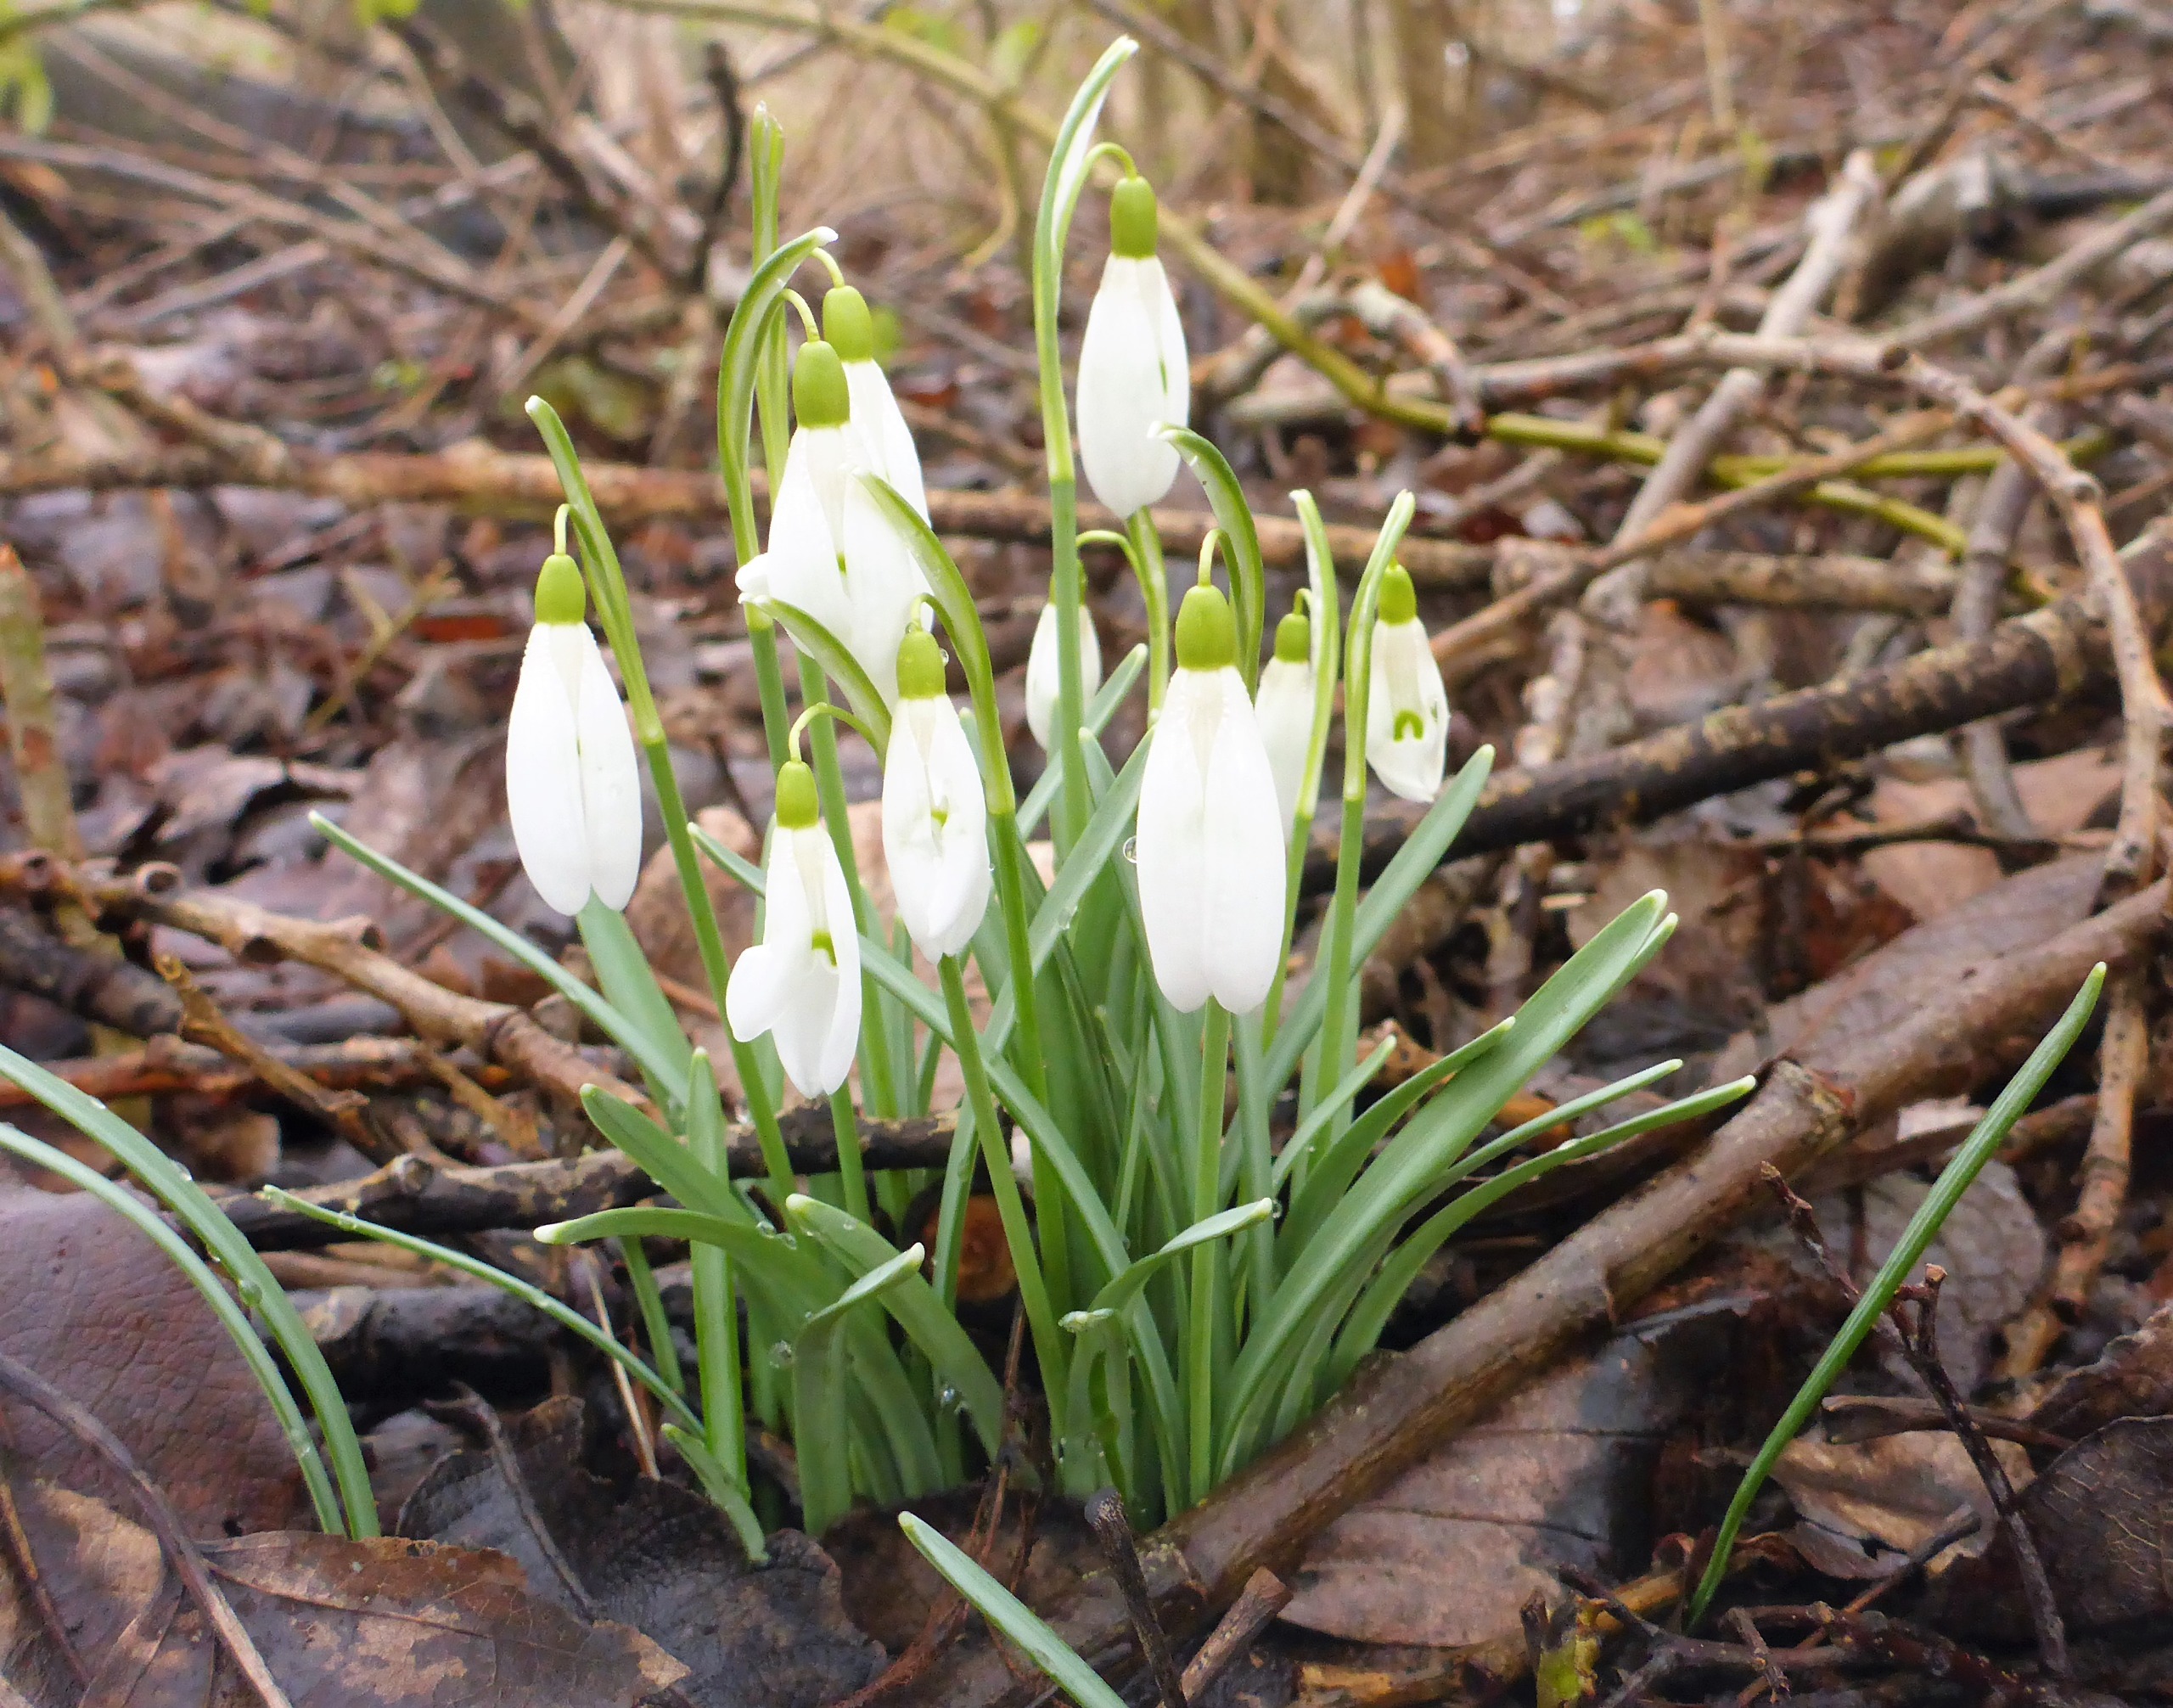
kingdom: Plantae
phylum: Tracheophyta
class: Liliopsida
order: Asparagales
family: Amaryllidaceae
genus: Galanthus
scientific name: Galanthus nivalis
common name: Vintergæk
